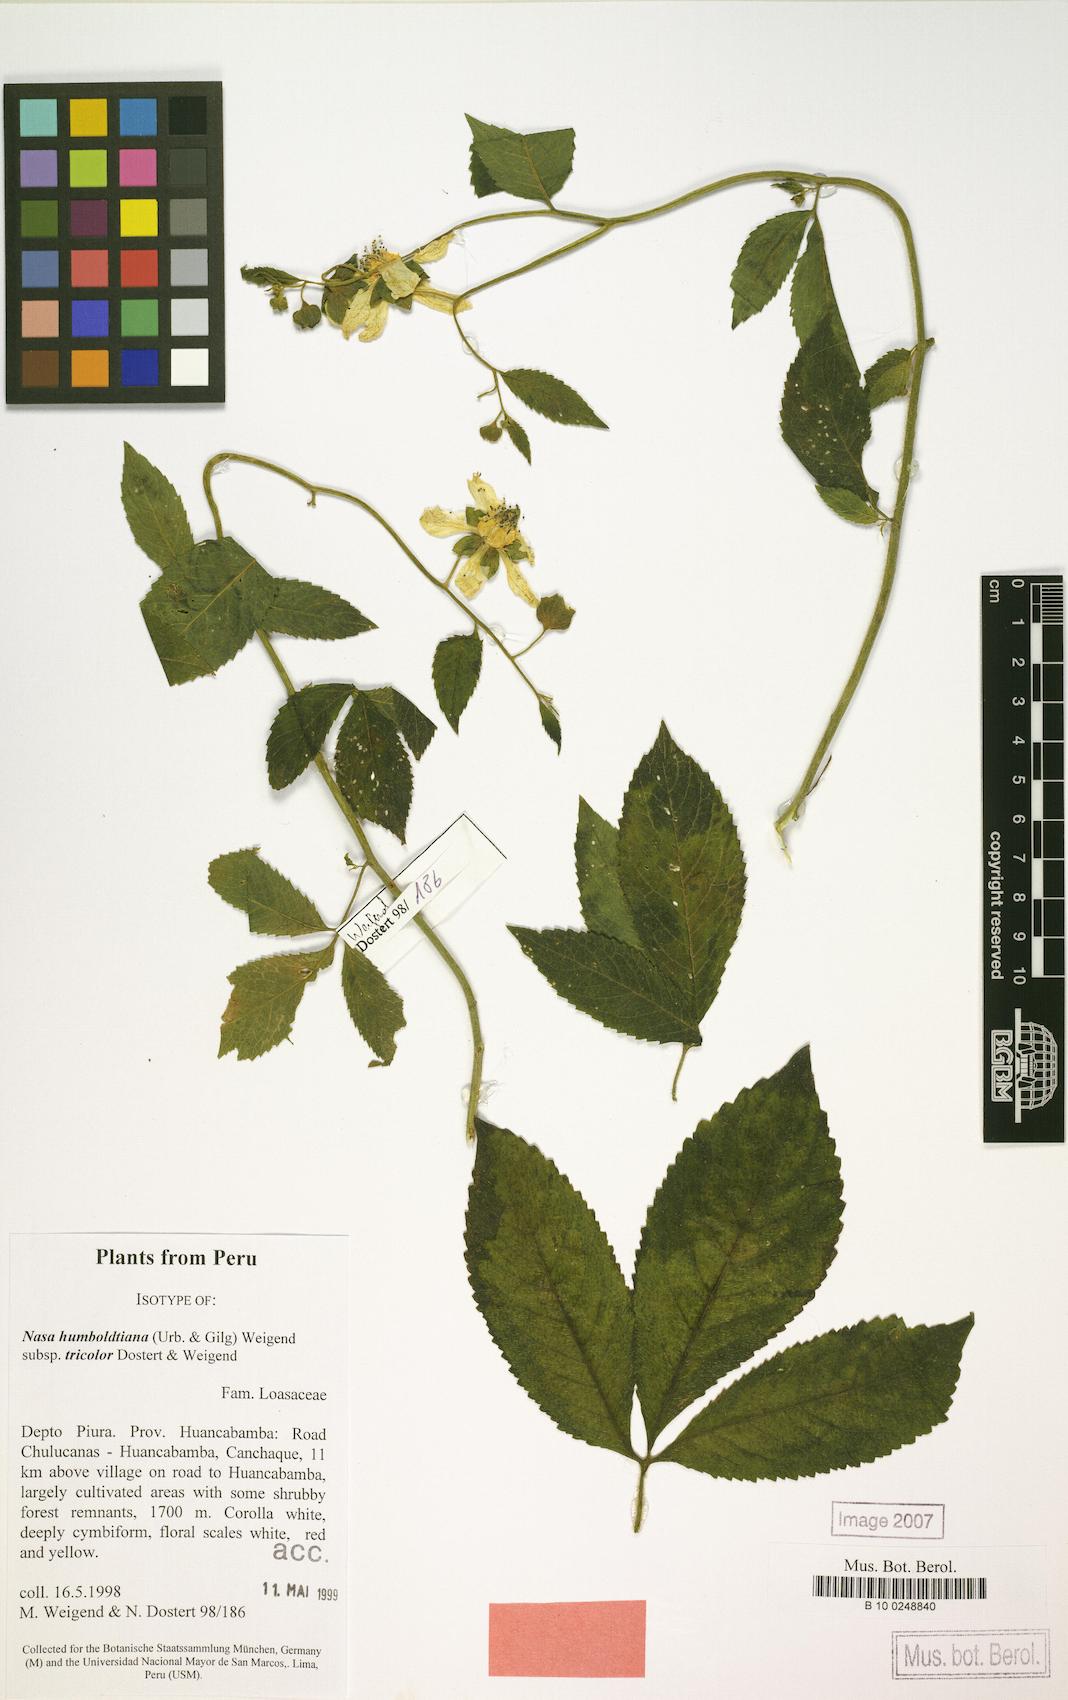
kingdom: Plantae
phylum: Tracheophyta
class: Magnoliopsida
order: Cornales
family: Loasaceae
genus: Nasa
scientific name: Nasa humboldtiana
